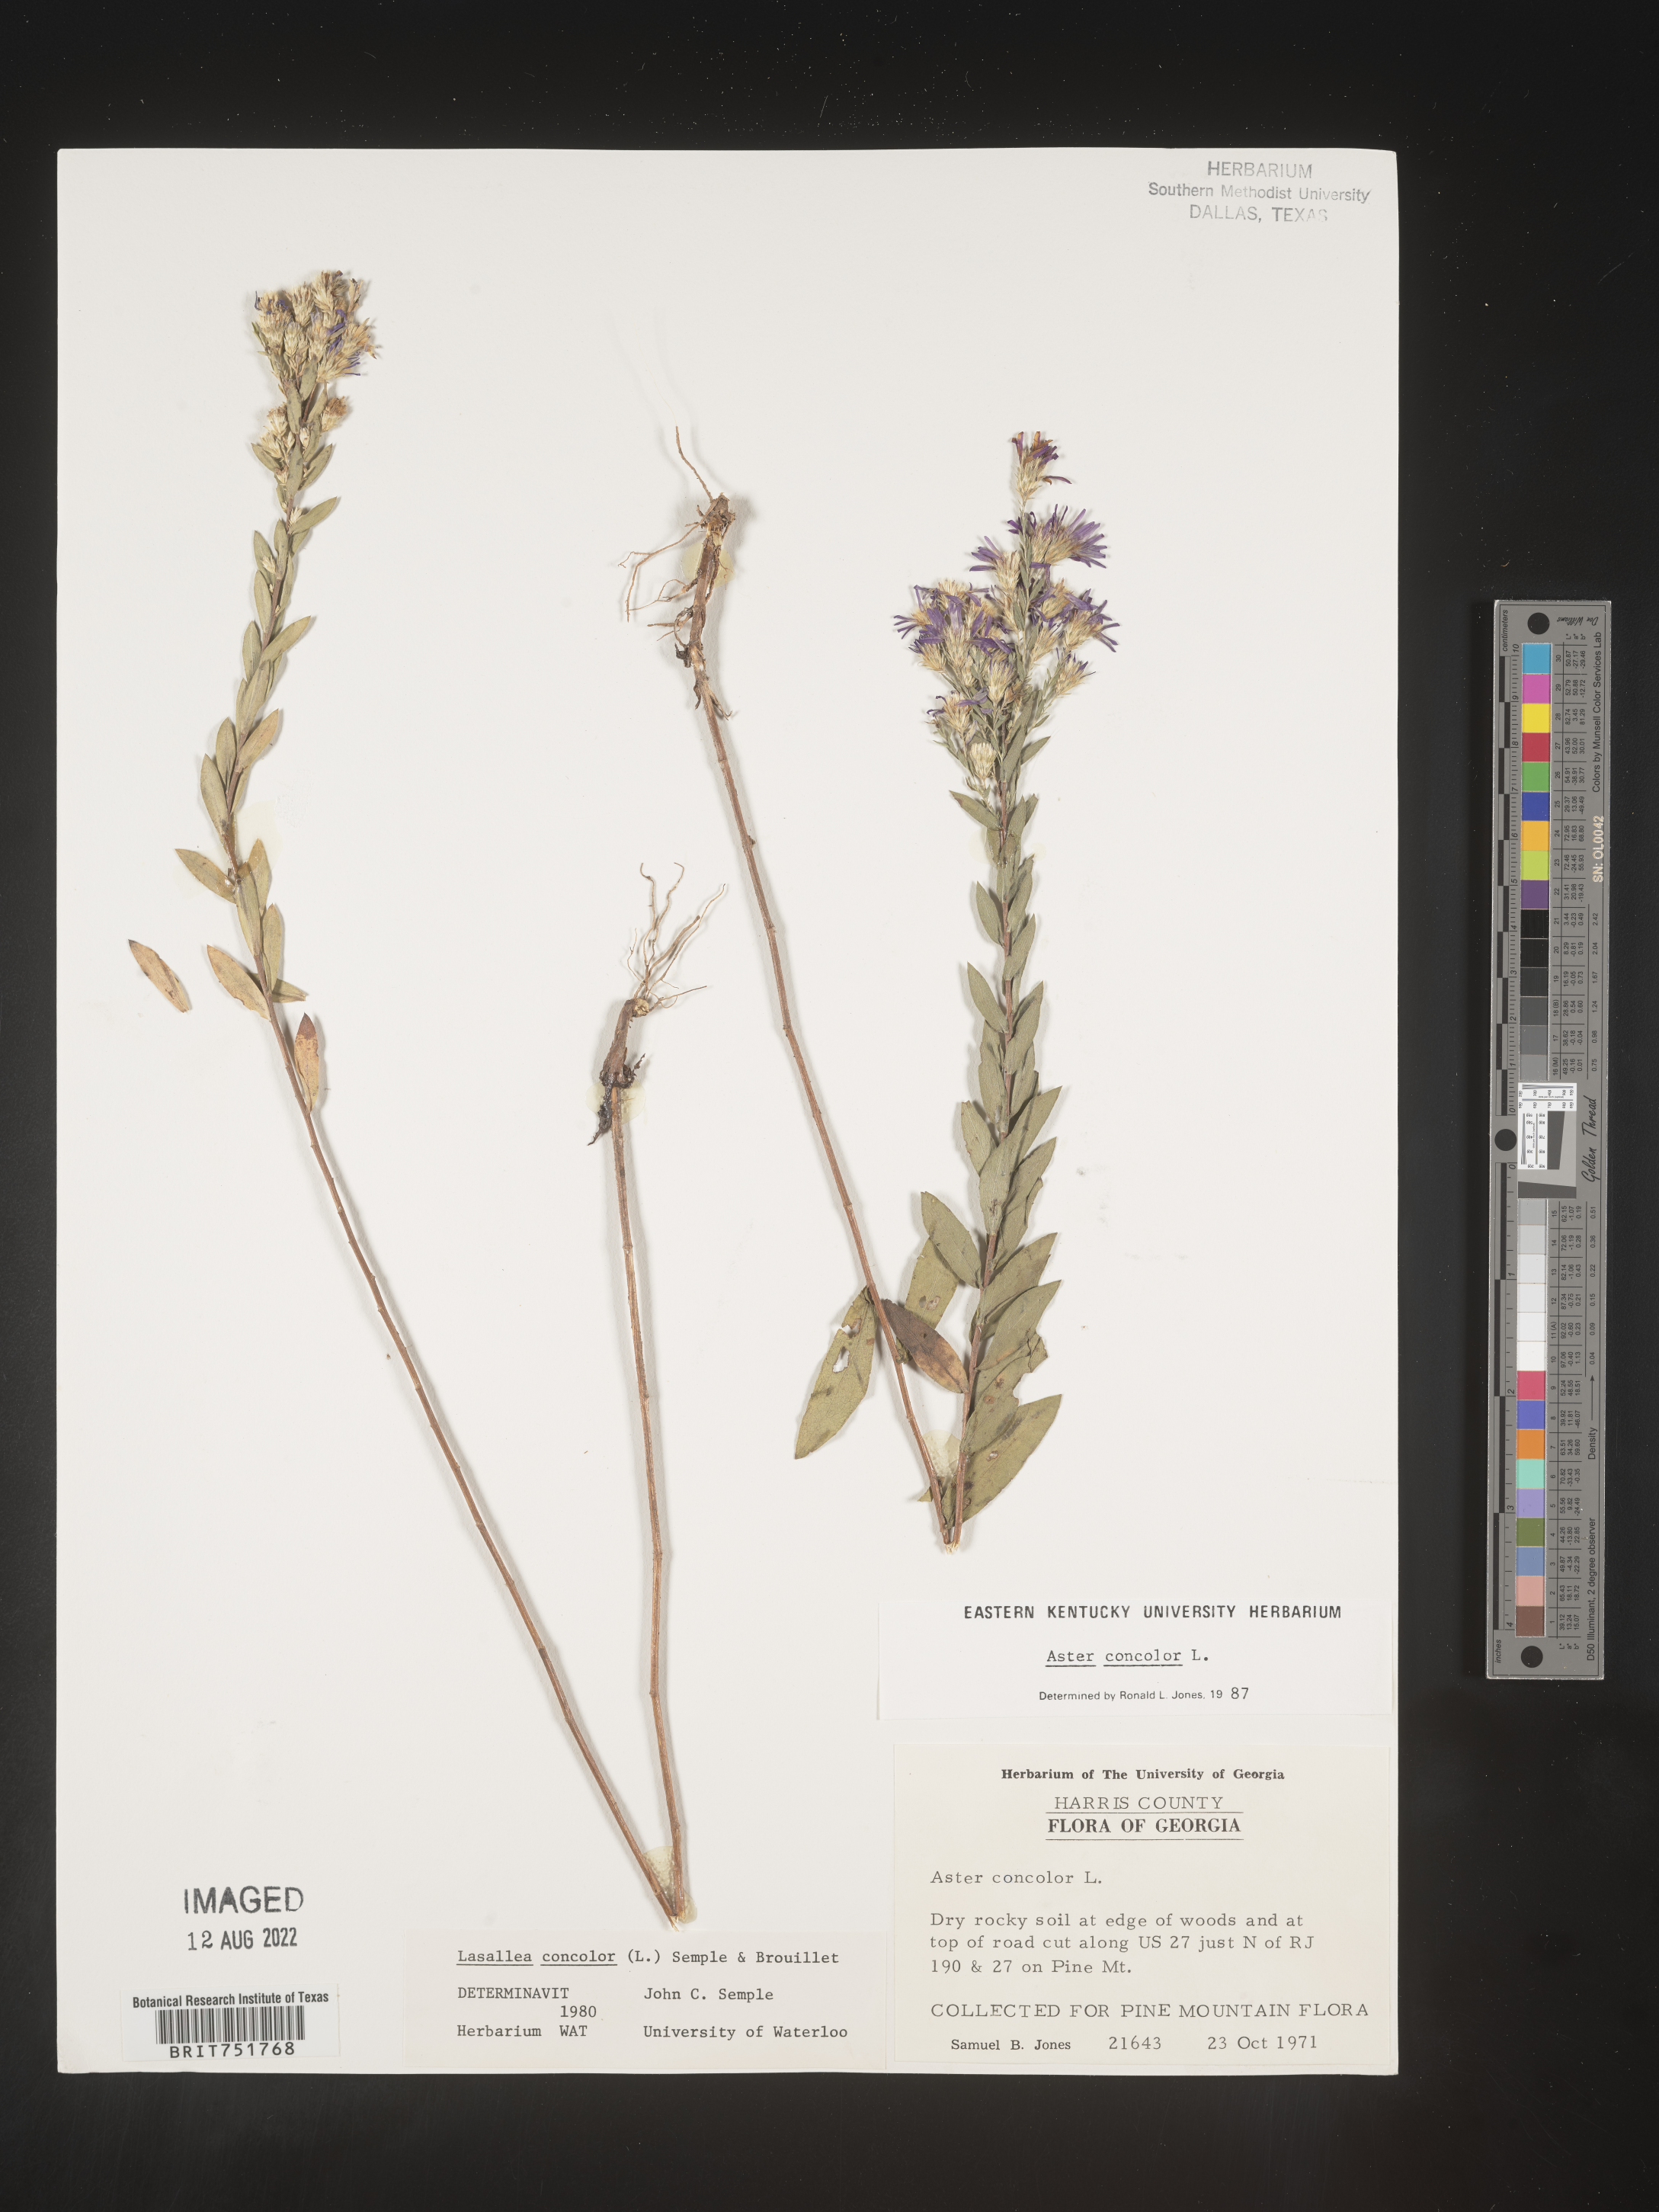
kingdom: Plantae
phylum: Tracheophyta
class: Magnoliopsida
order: Asterales
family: Asteraceae
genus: Symphyotrichum
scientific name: Symphyotrichum concolor
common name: Eastern silver aster
